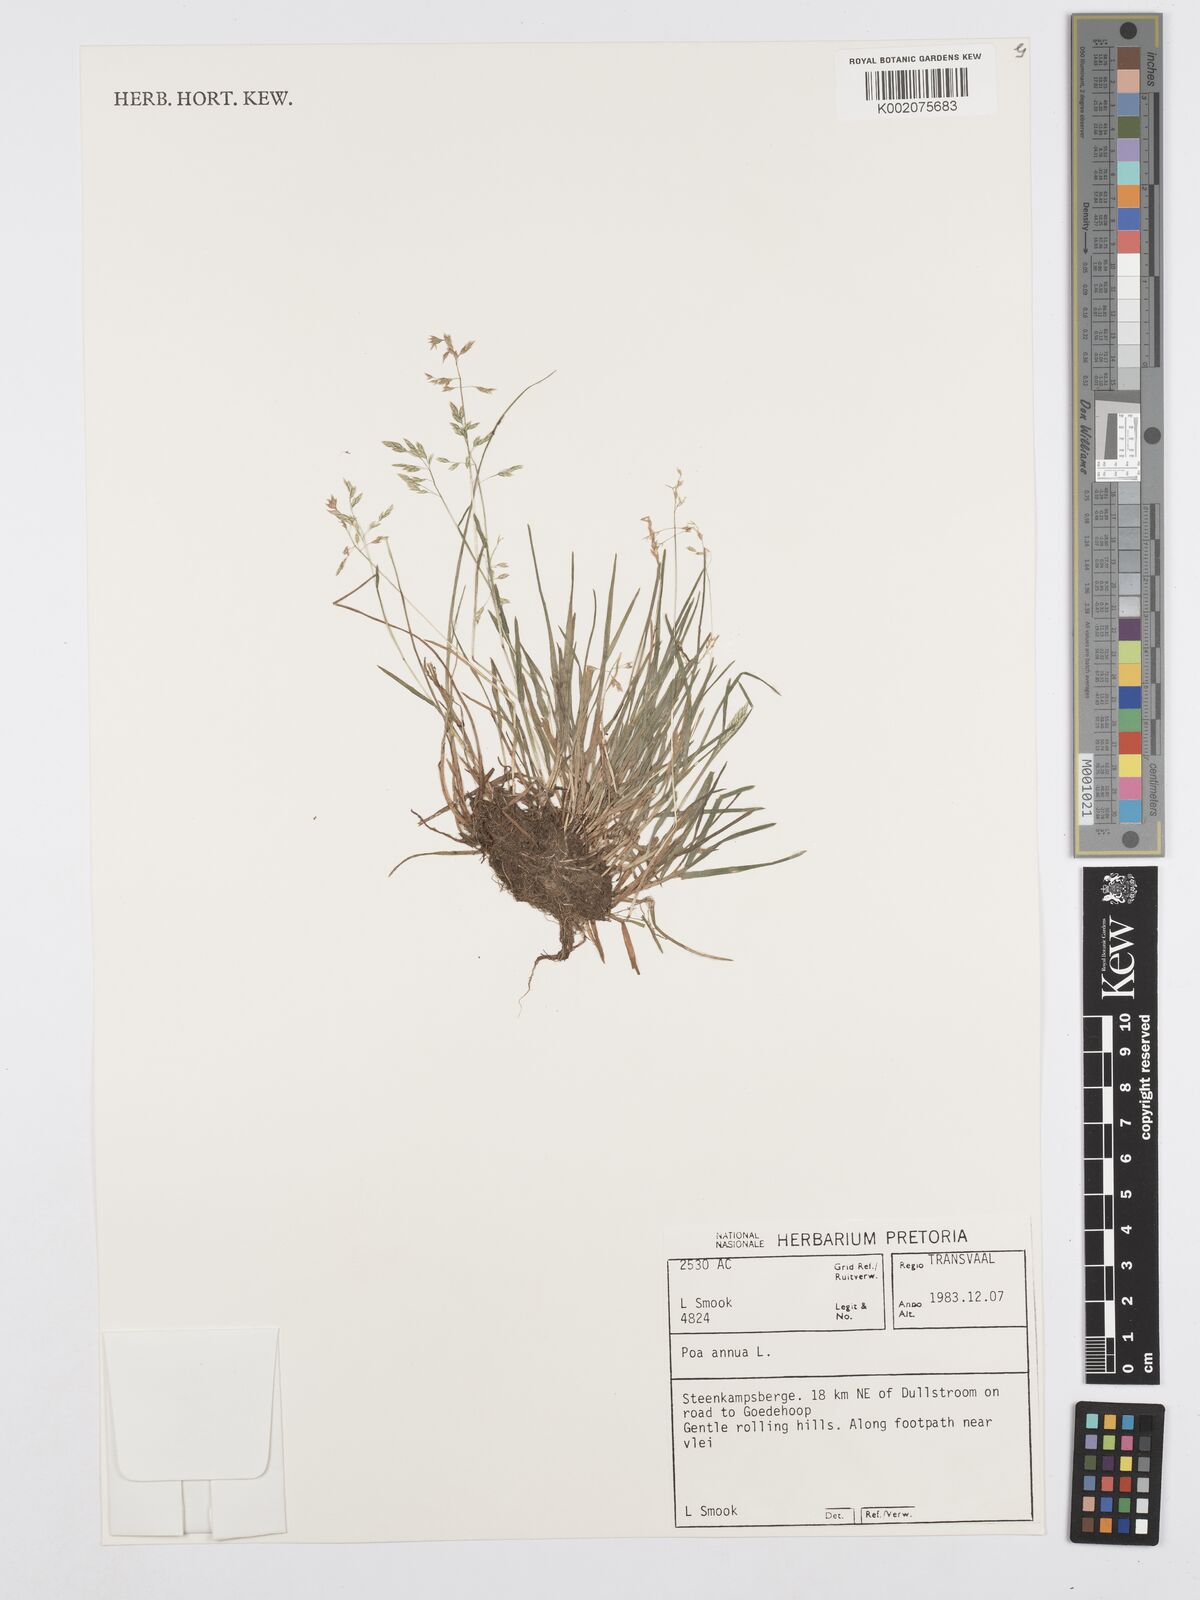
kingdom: Plantae
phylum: Tracheophyta
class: Liliopsida
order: Poales
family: Poaceae
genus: Poa
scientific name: Poa annua
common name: Annual bluegrass
